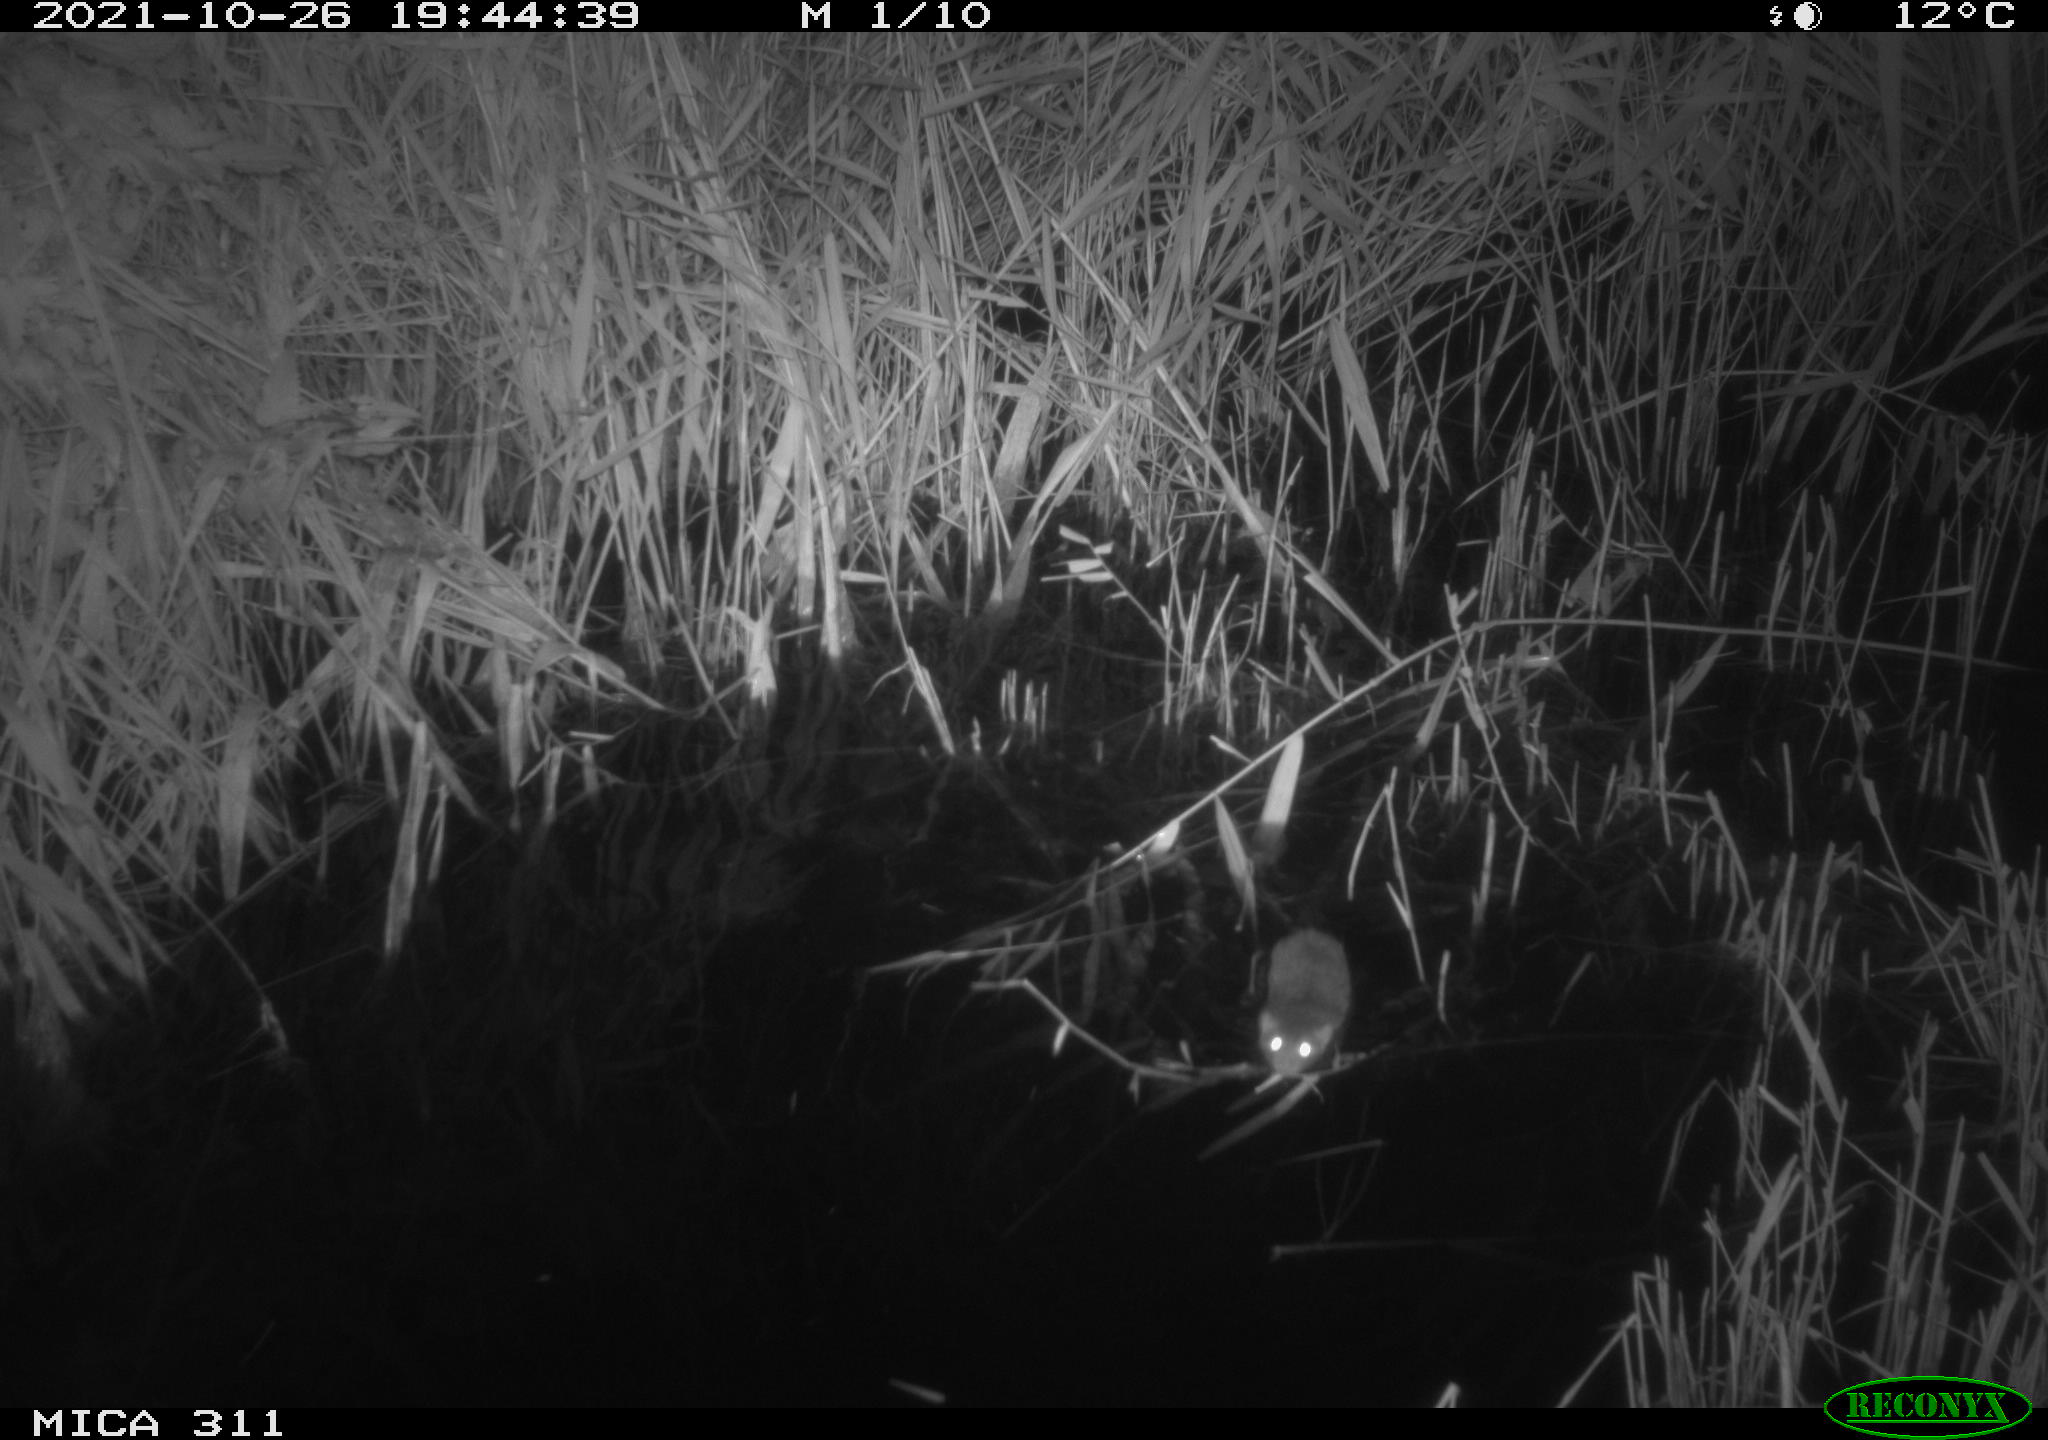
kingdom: Animalia
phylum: Chordata
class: Mammalia
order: Rodentia
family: Muridae
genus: Rattus
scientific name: Rattus norvegicus
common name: Brown rat
